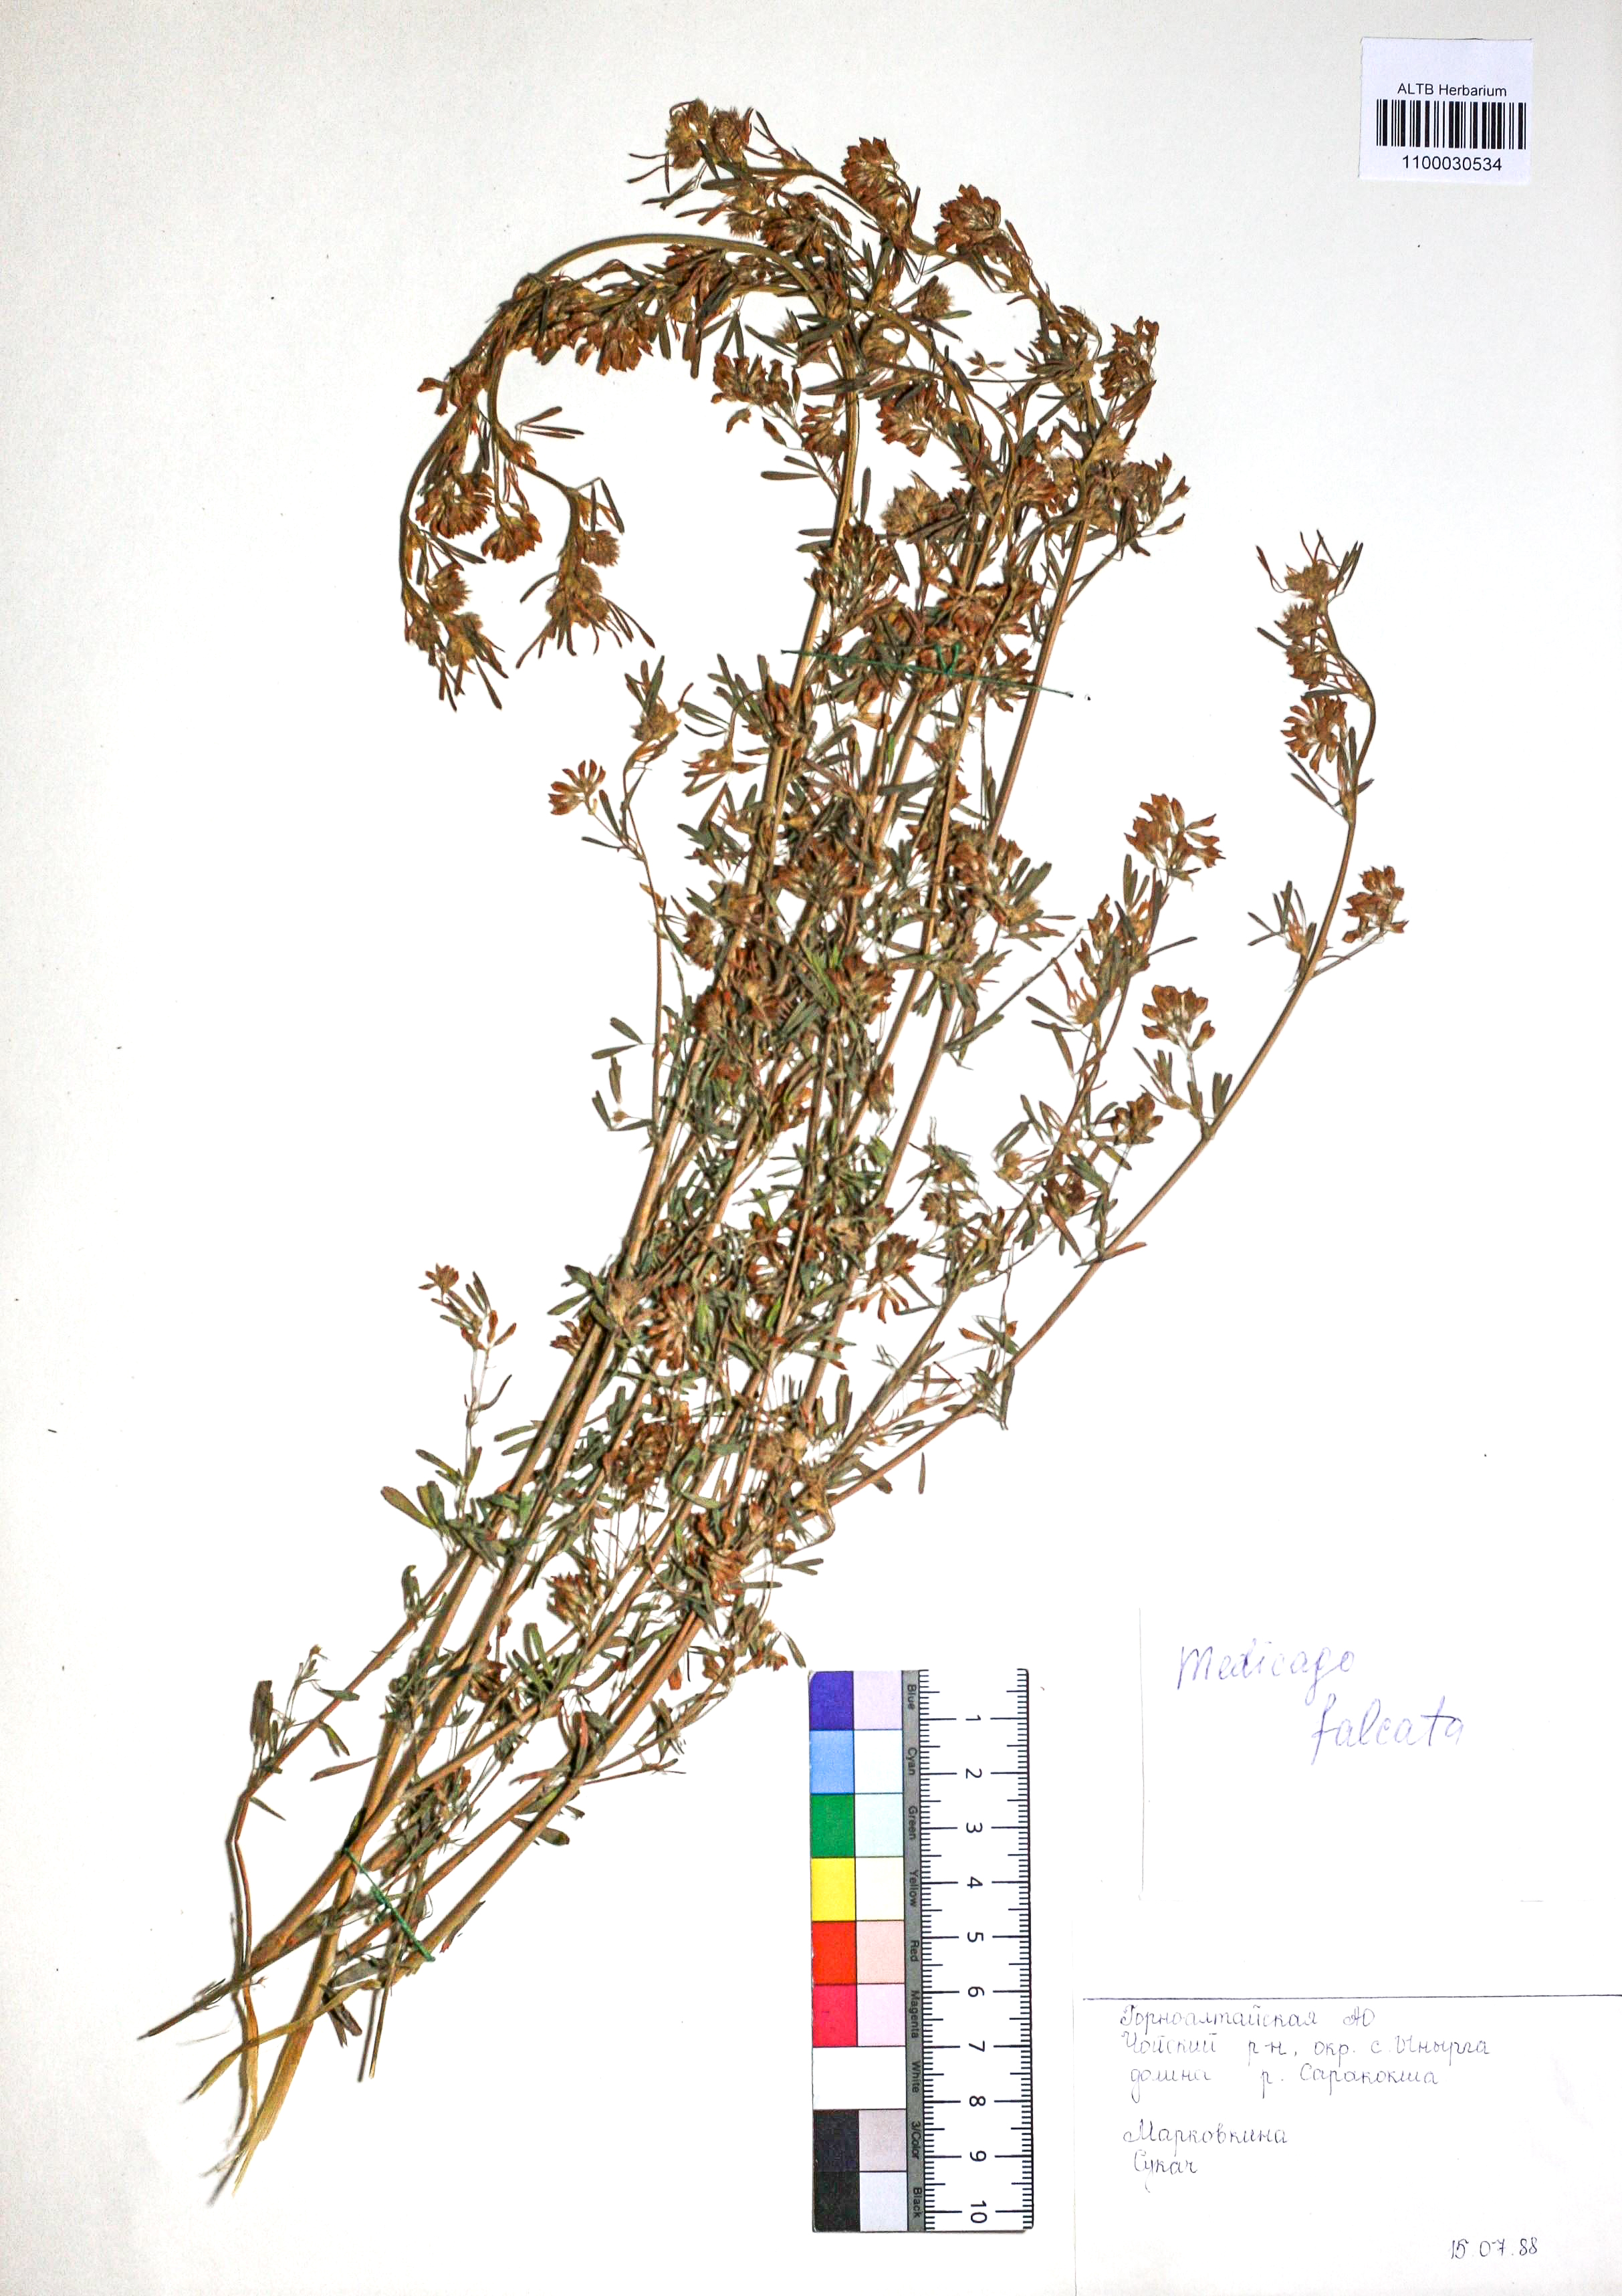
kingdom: Plantae
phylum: Tracheophyta
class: Magnoliopsida
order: Fabales
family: Fabaceae
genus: Medicago
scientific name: Medicago falcata
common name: Sickle medick
